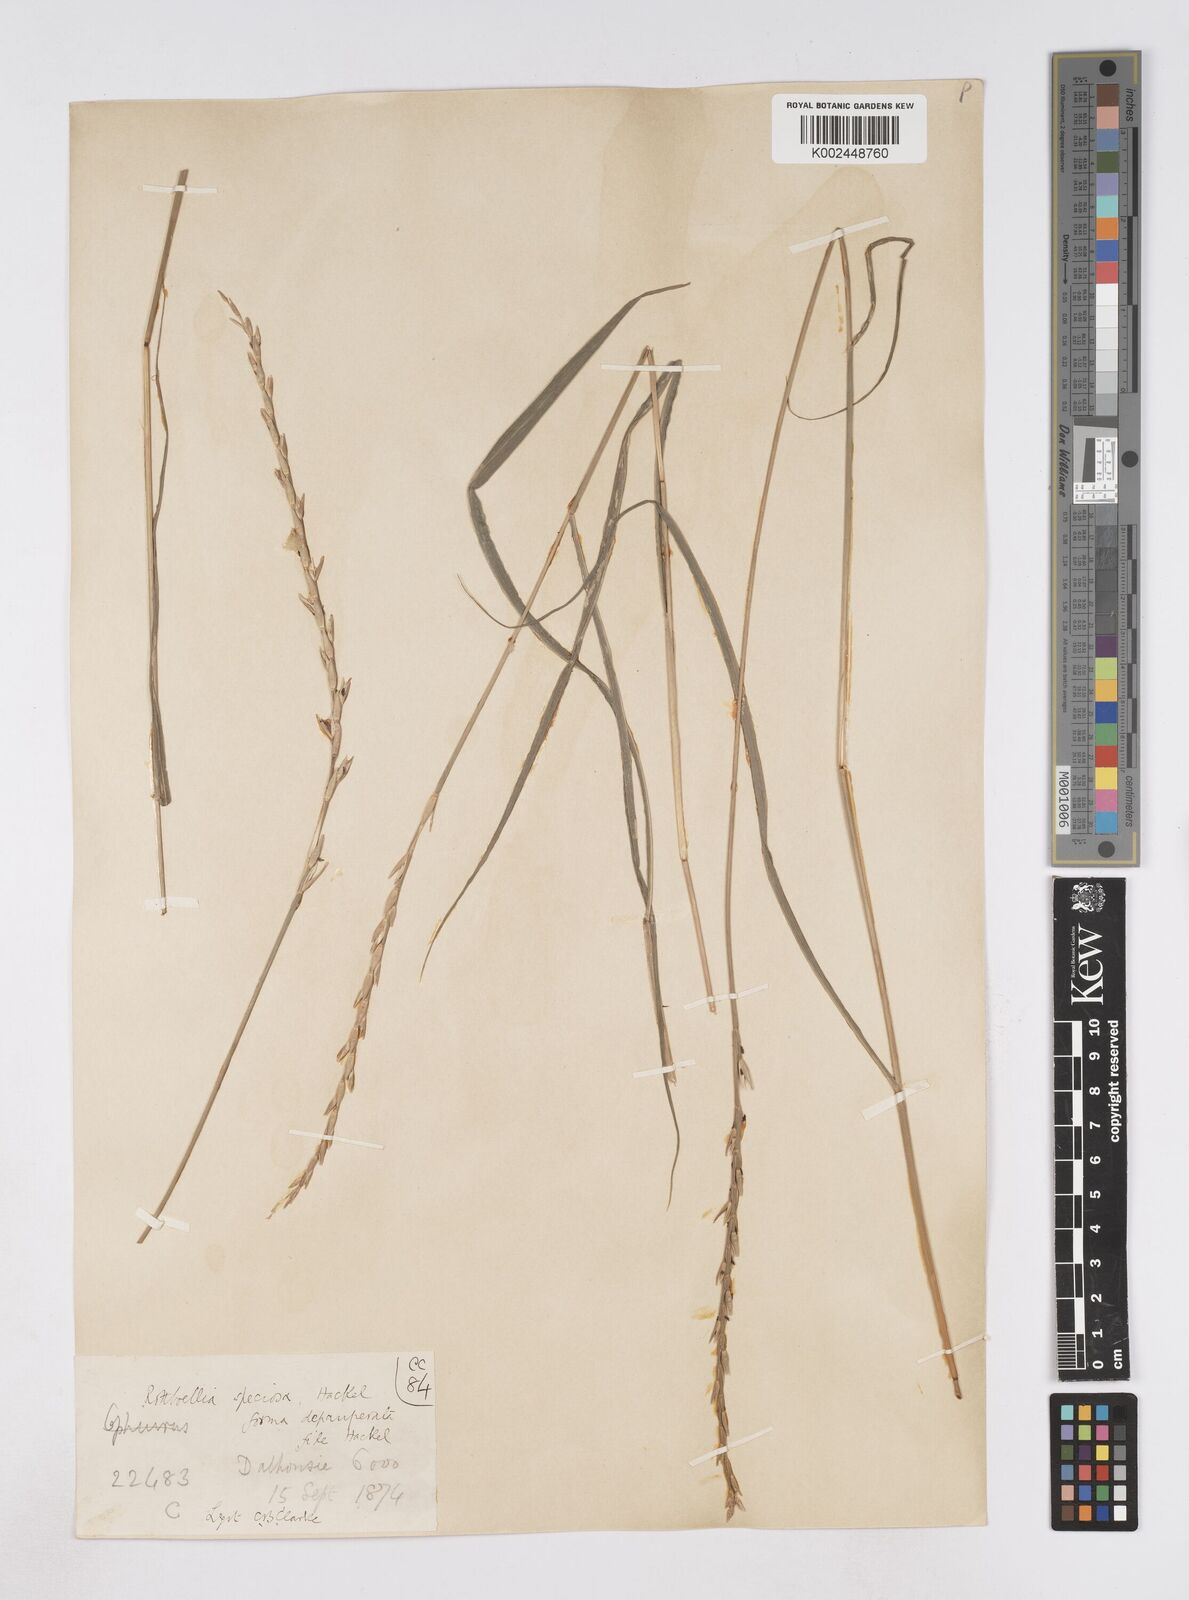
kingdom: Plantae
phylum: Tracheophyta
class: Liliopsida
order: Poales
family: Poaceae
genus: Phacelurus
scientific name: Phacelurus speciosus
